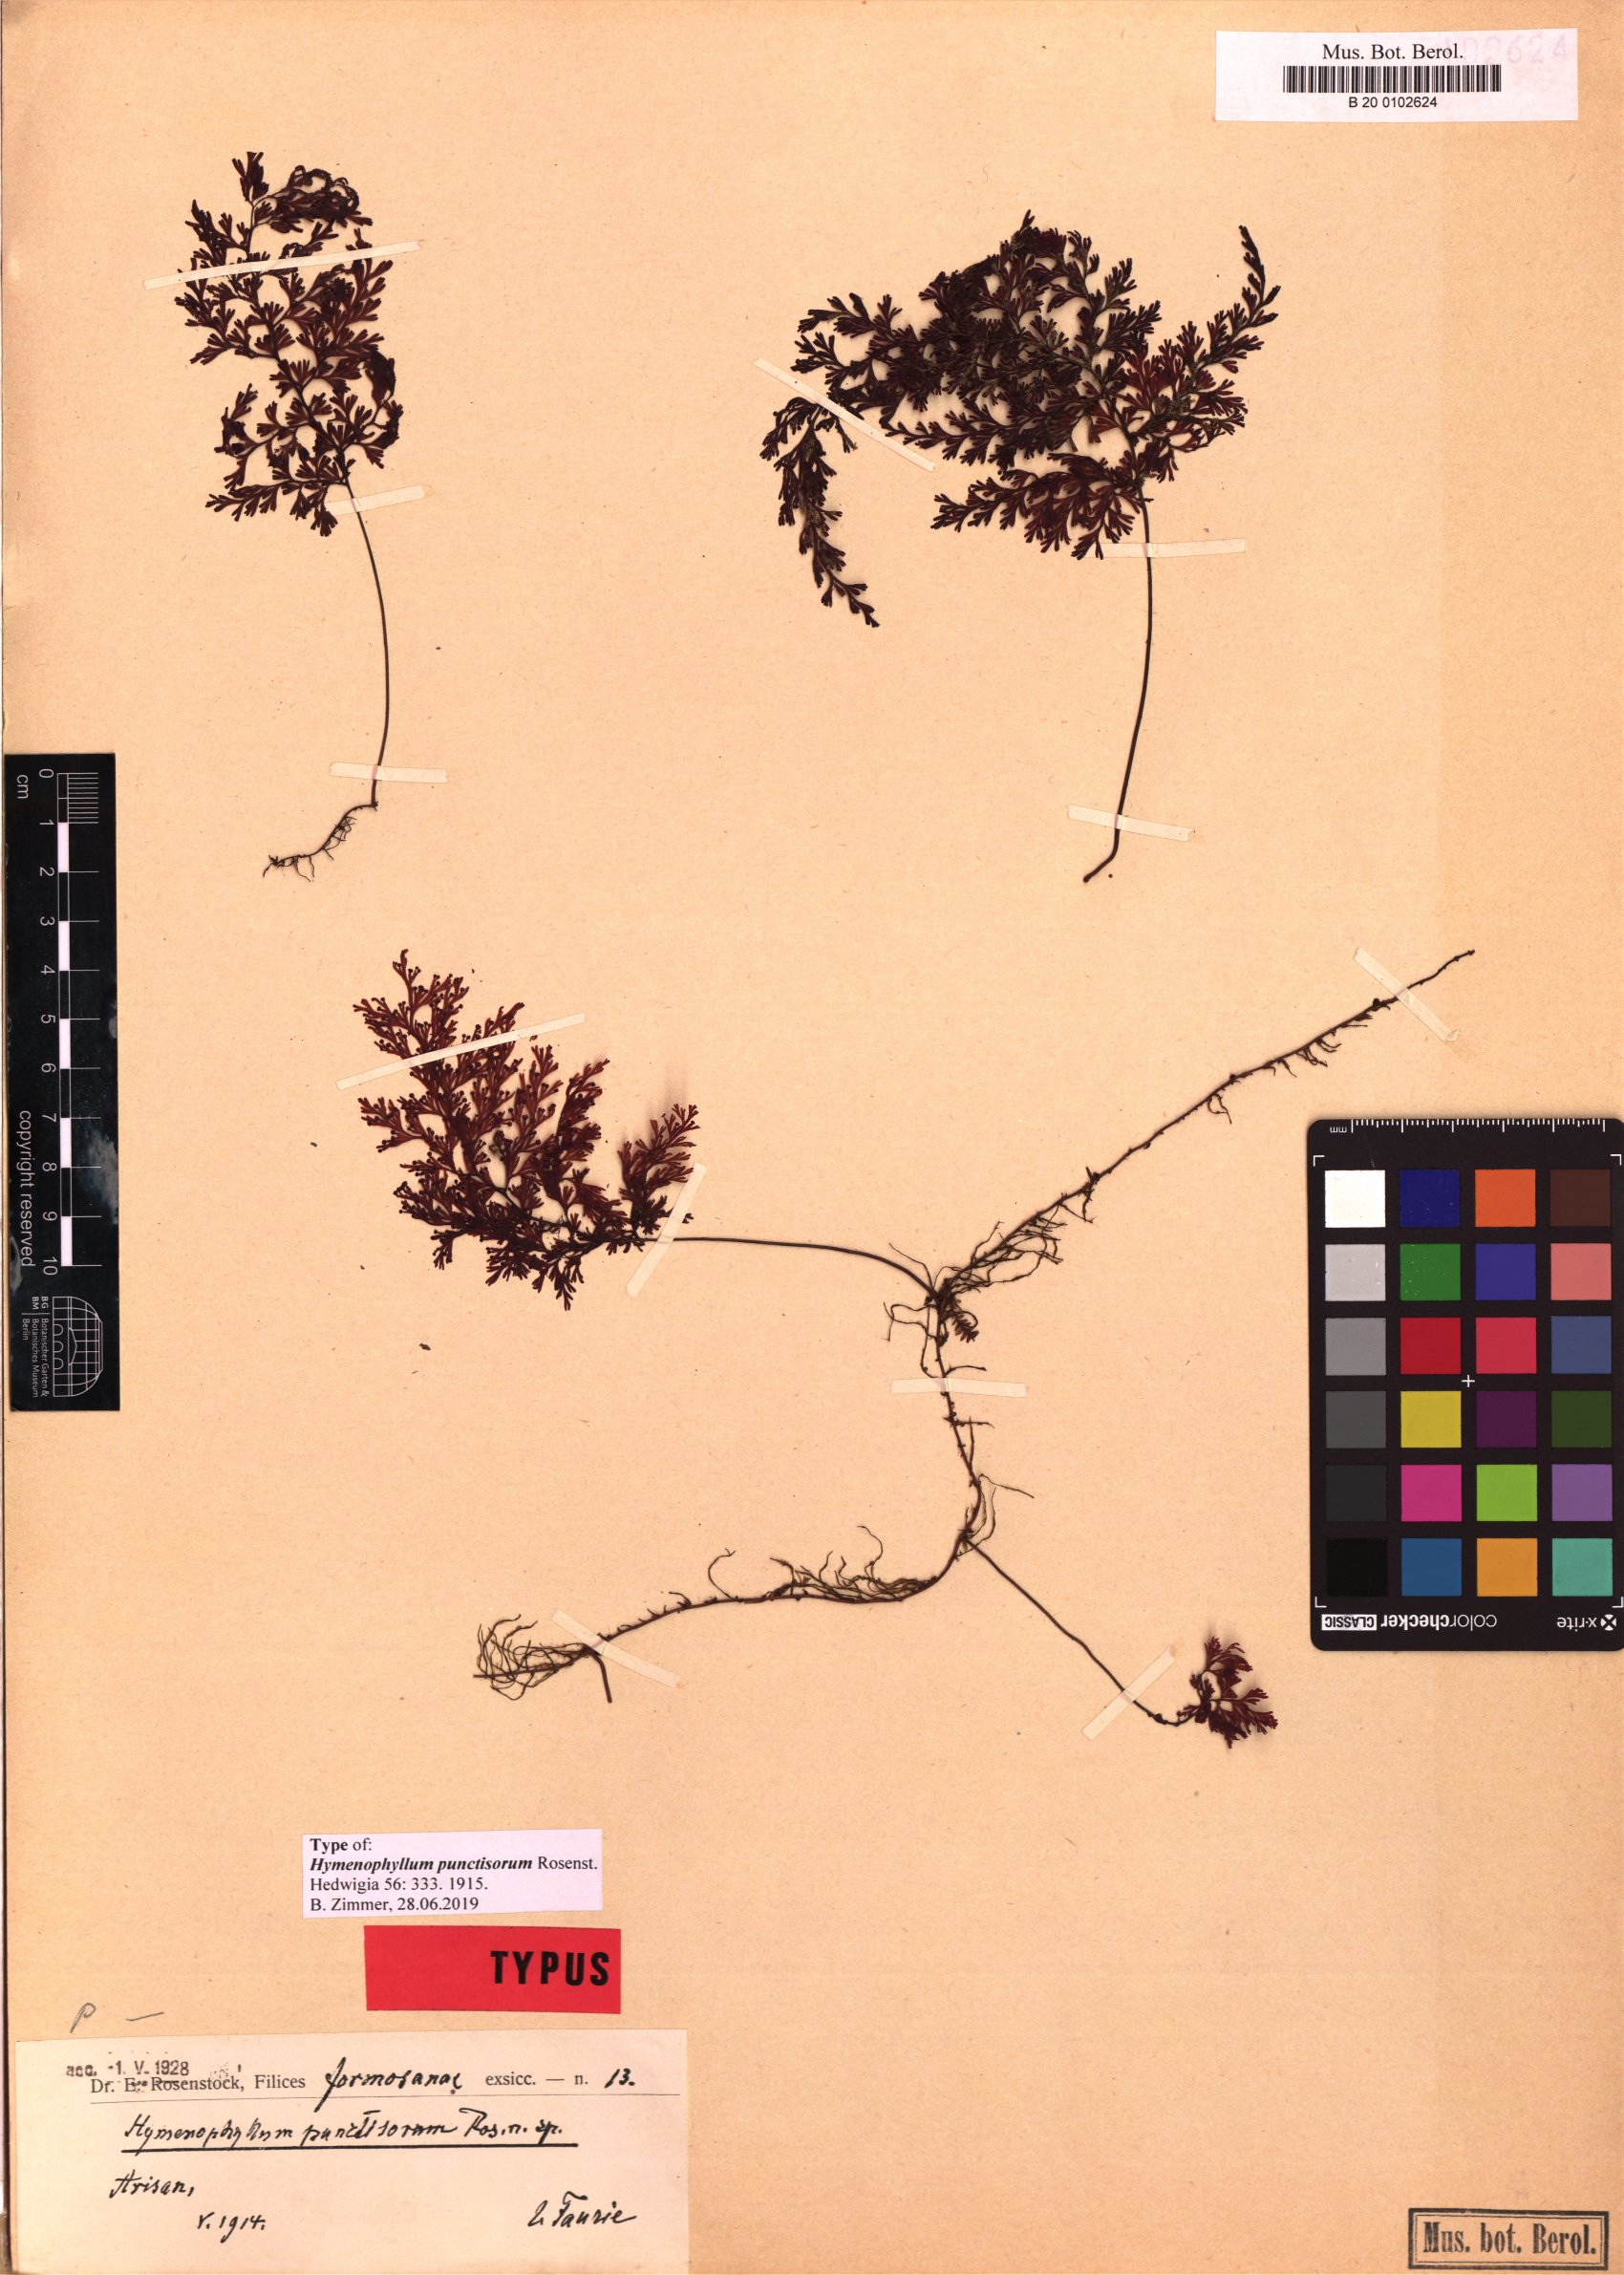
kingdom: Plantae
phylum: Tracheophyta
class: Polypodiopsida
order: Hymenophyllales
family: Hymenophyllaceae
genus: Hymenophyllum
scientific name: Hymenophyllum punctisorum
